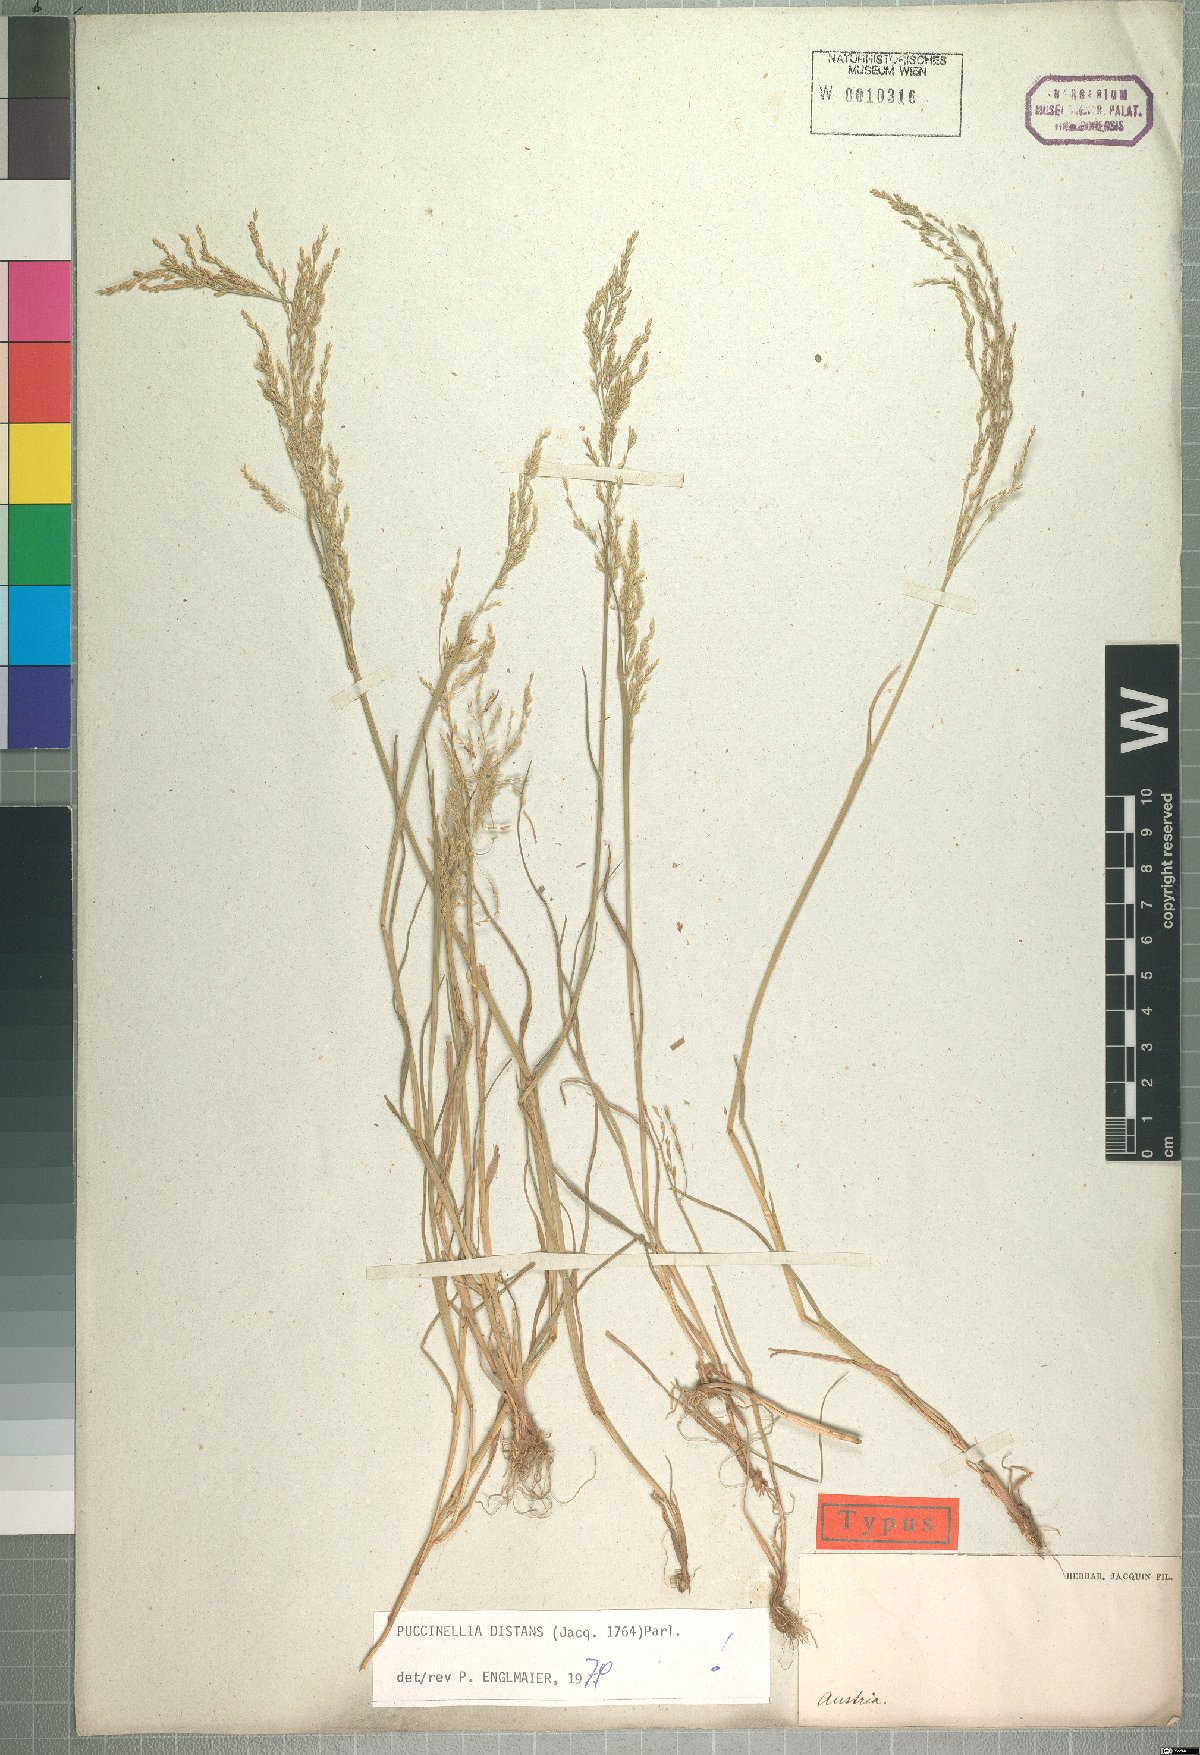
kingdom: Plantae
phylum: Tracheophyta
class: Liliopsida
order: Poales
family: Poaceae
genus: Puccinellia
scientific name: Puccinellia distans
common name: Weeping alkaligrass
